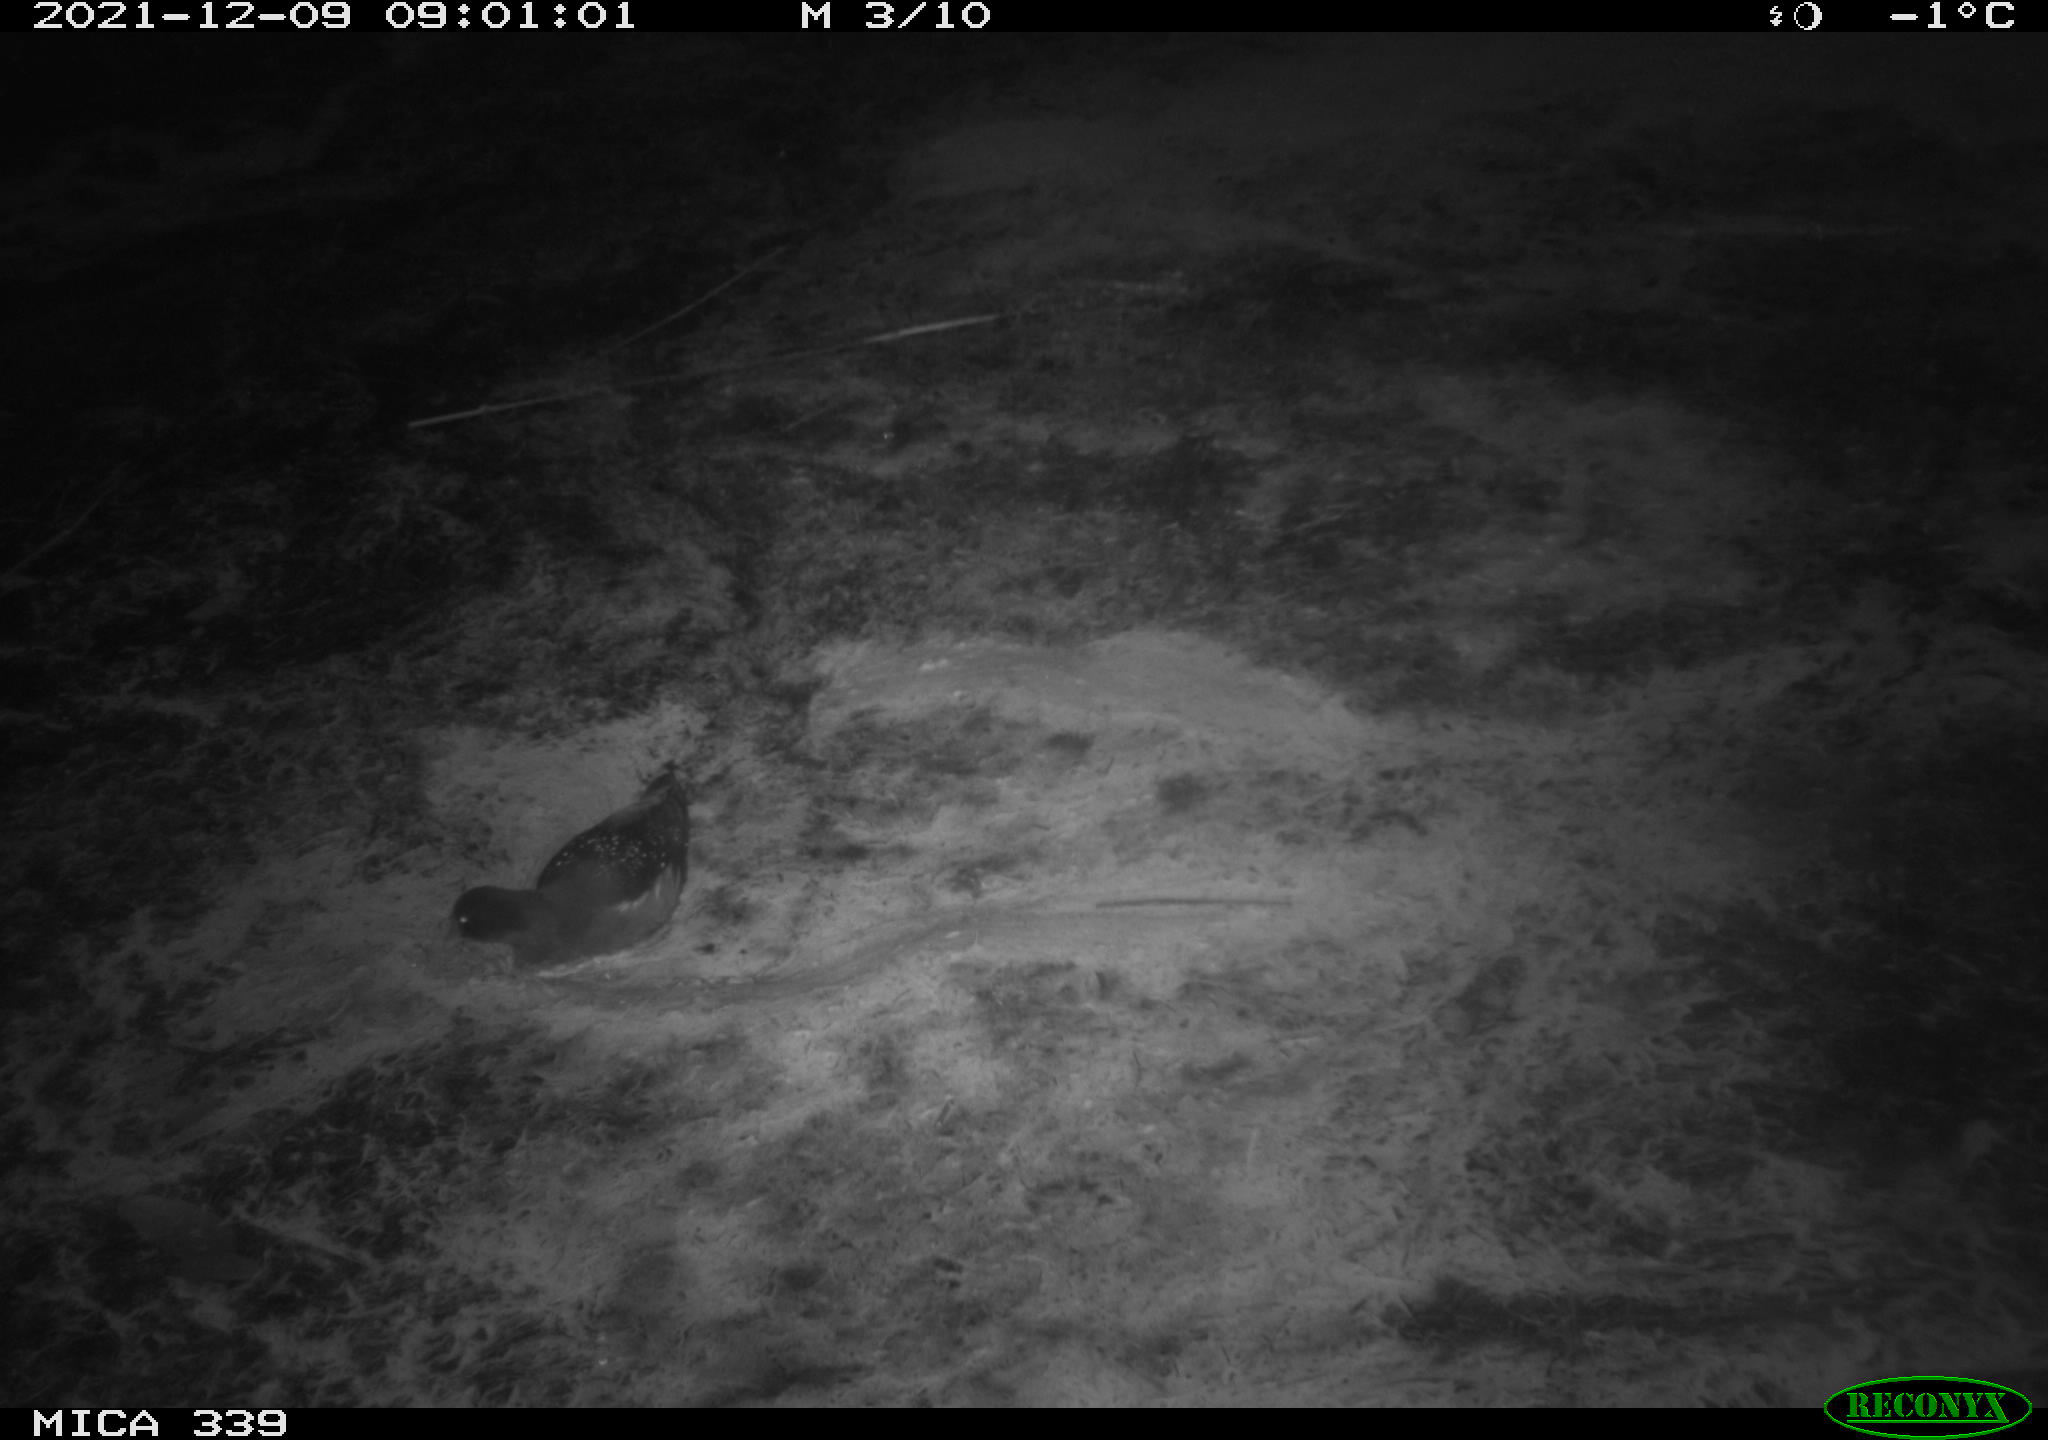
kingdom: Animalia
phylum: Chordata
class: Aves
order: Gruiformes
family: Rallidae
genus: Gallinula
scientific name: Gallinula chloropus
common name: Common moorhen
